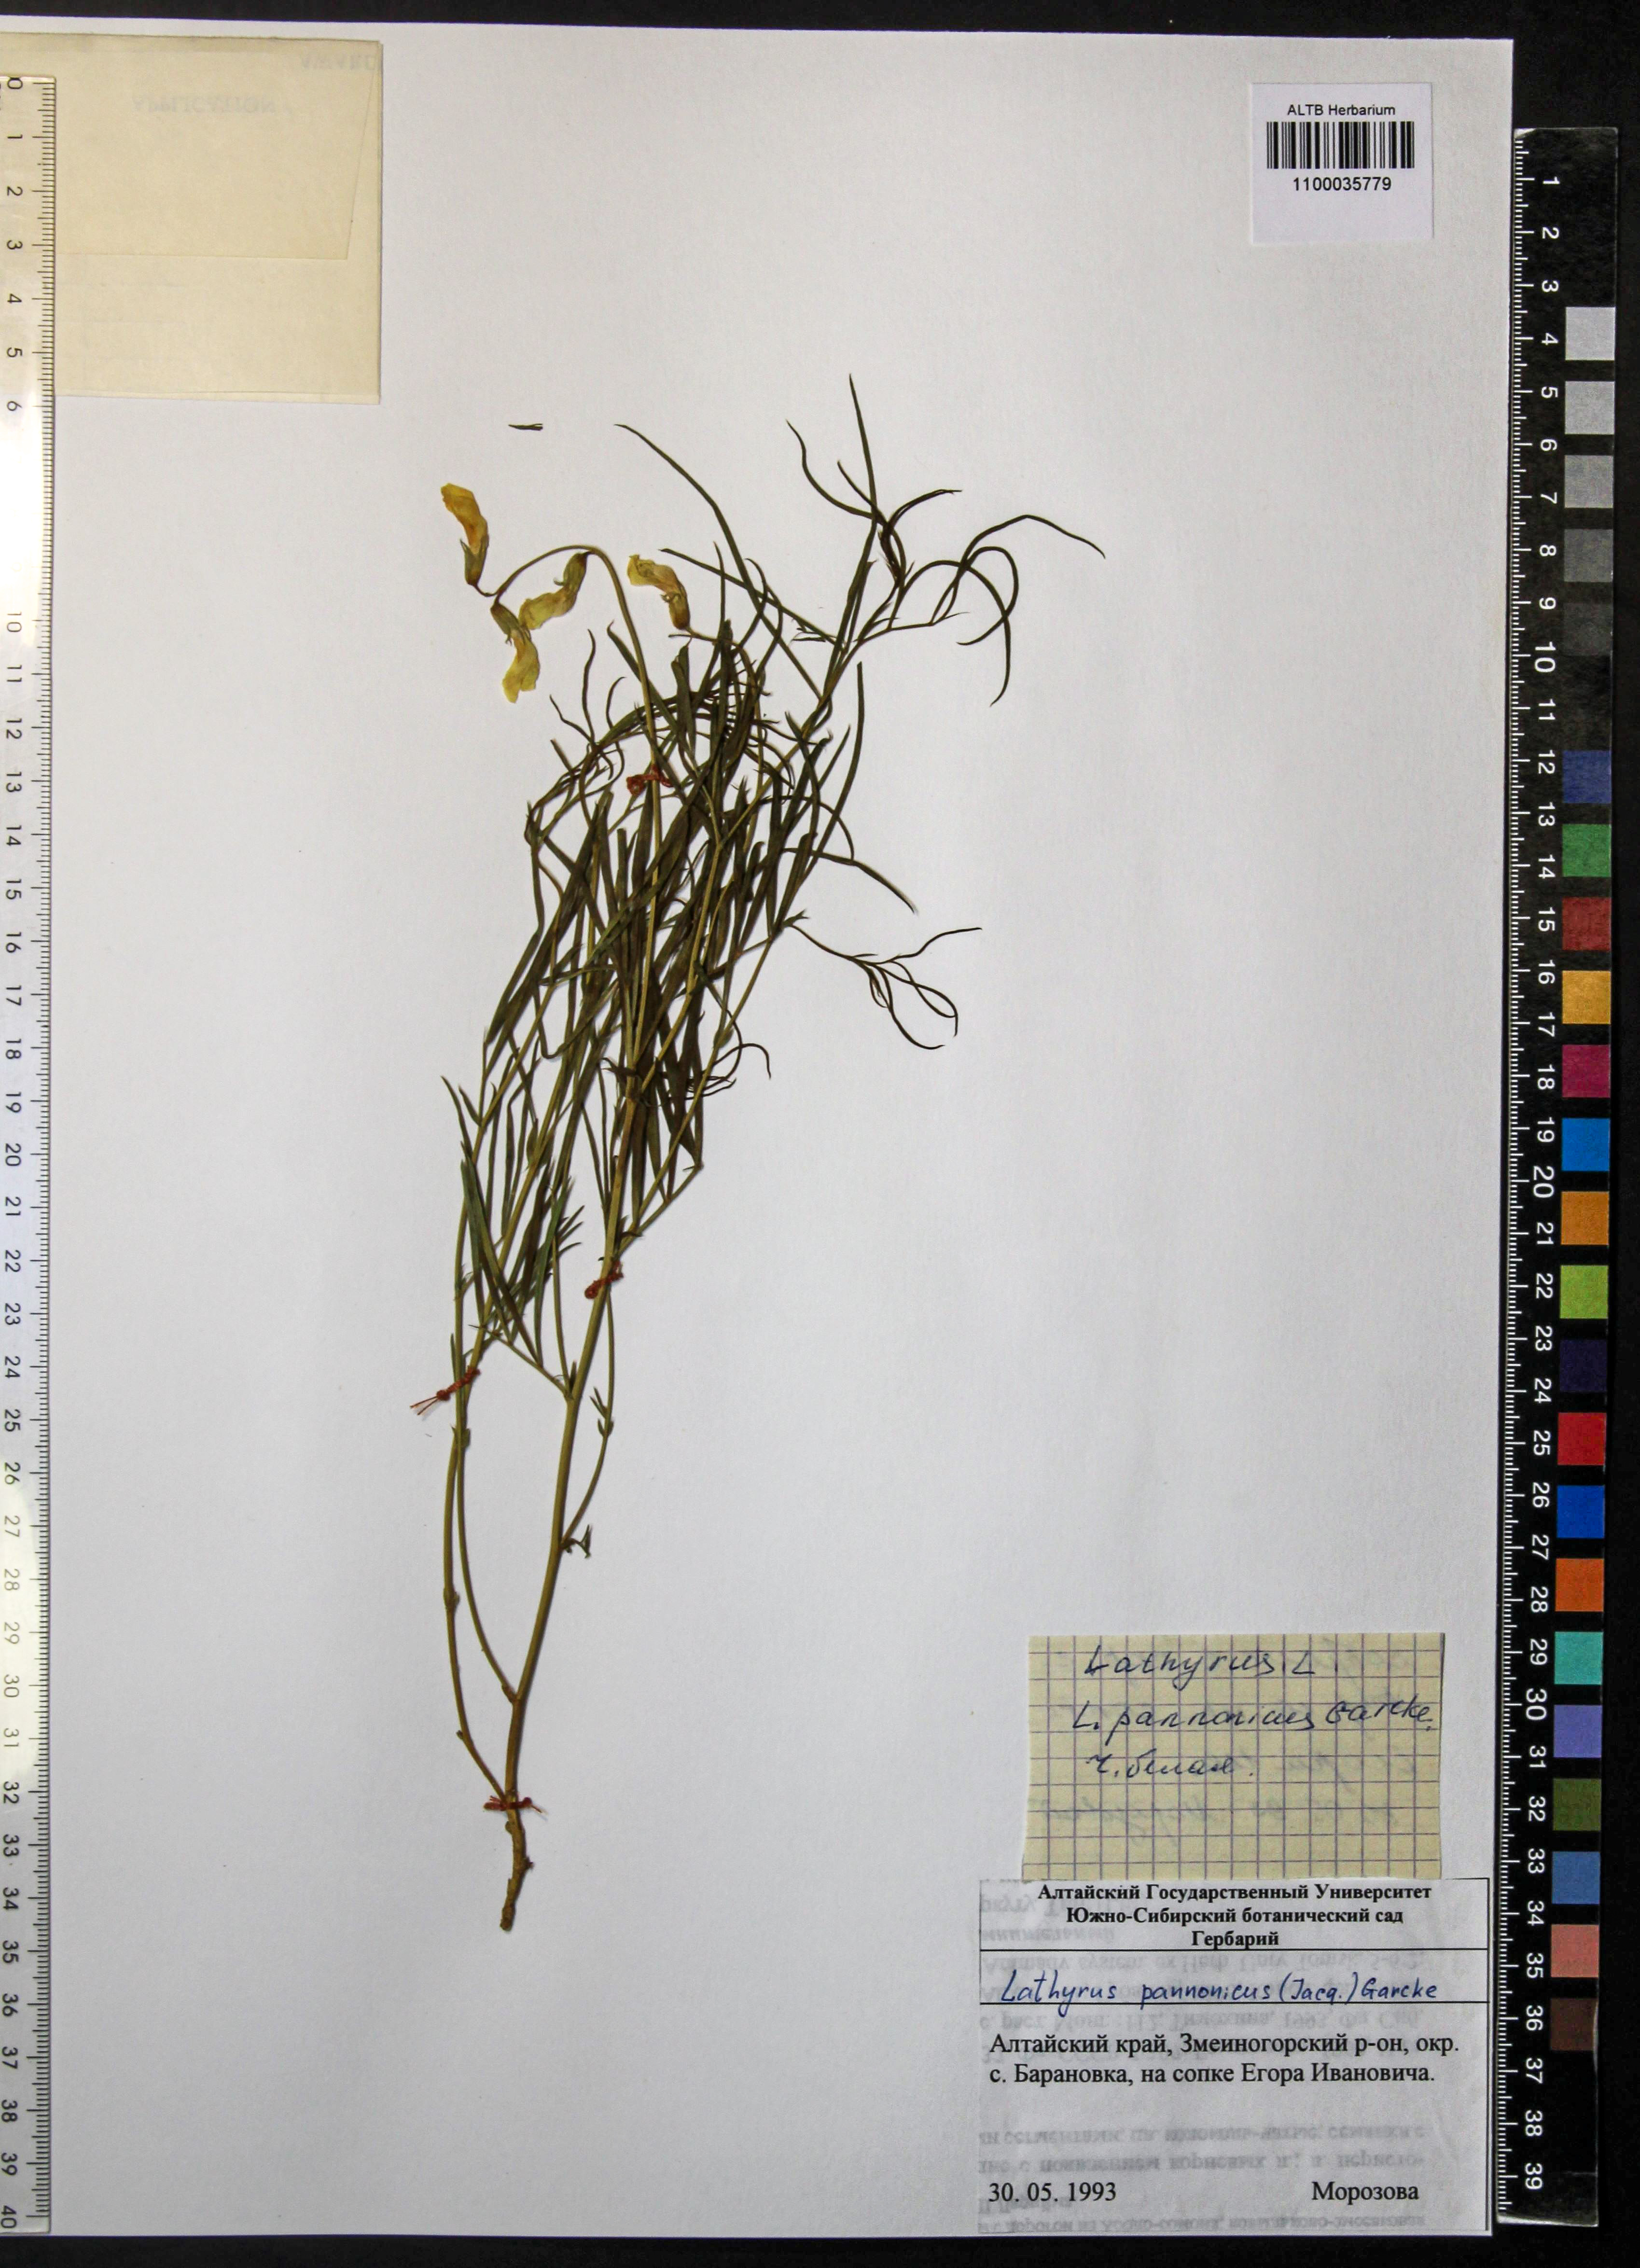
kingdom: Plantae
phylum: Tracheophyta
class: Magnoliopsida
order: Fabales
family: Fabaceae
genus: Lathyrus
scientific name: Lathyrus pannonicus
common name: Pea
